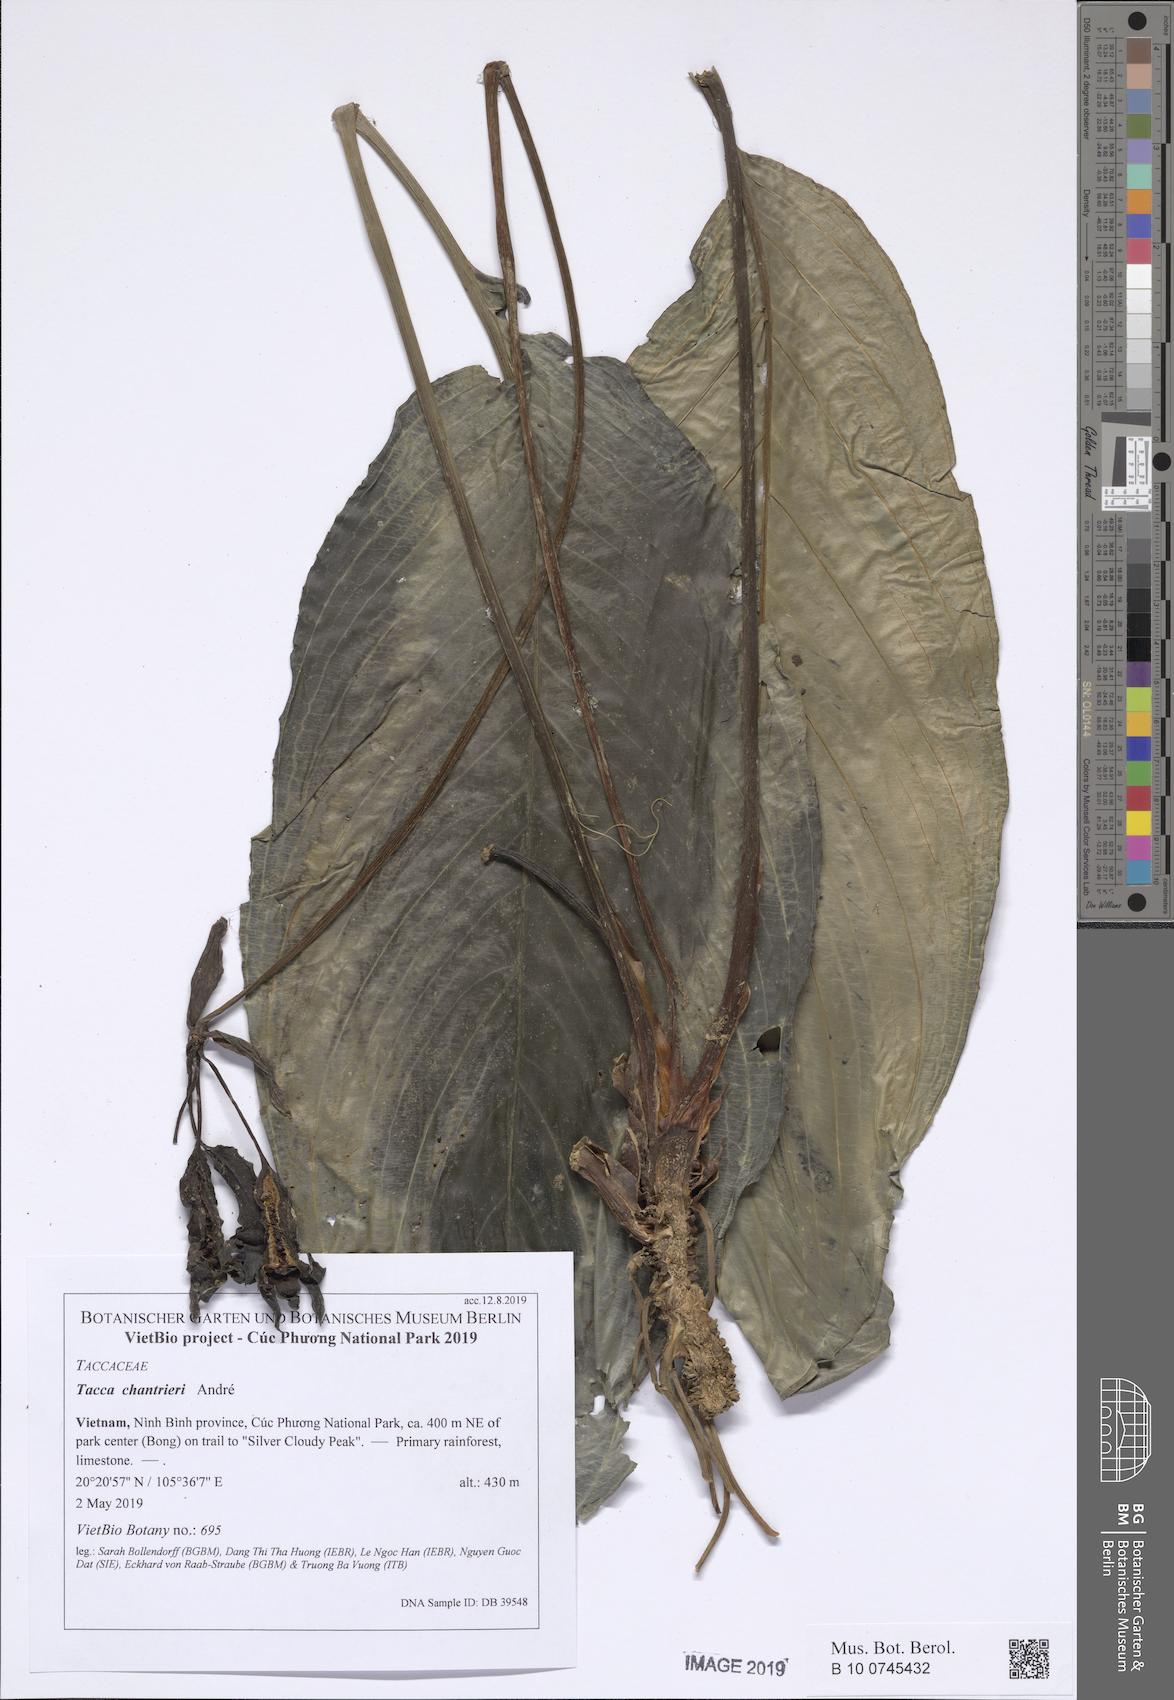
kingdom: Plantae
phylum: Tracheophyta
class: Liliopsida
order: Dioscoreales
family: Dioscoreaceae
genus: Tacca
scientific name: Tacca chantrieri
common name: Cat's-whiskers
